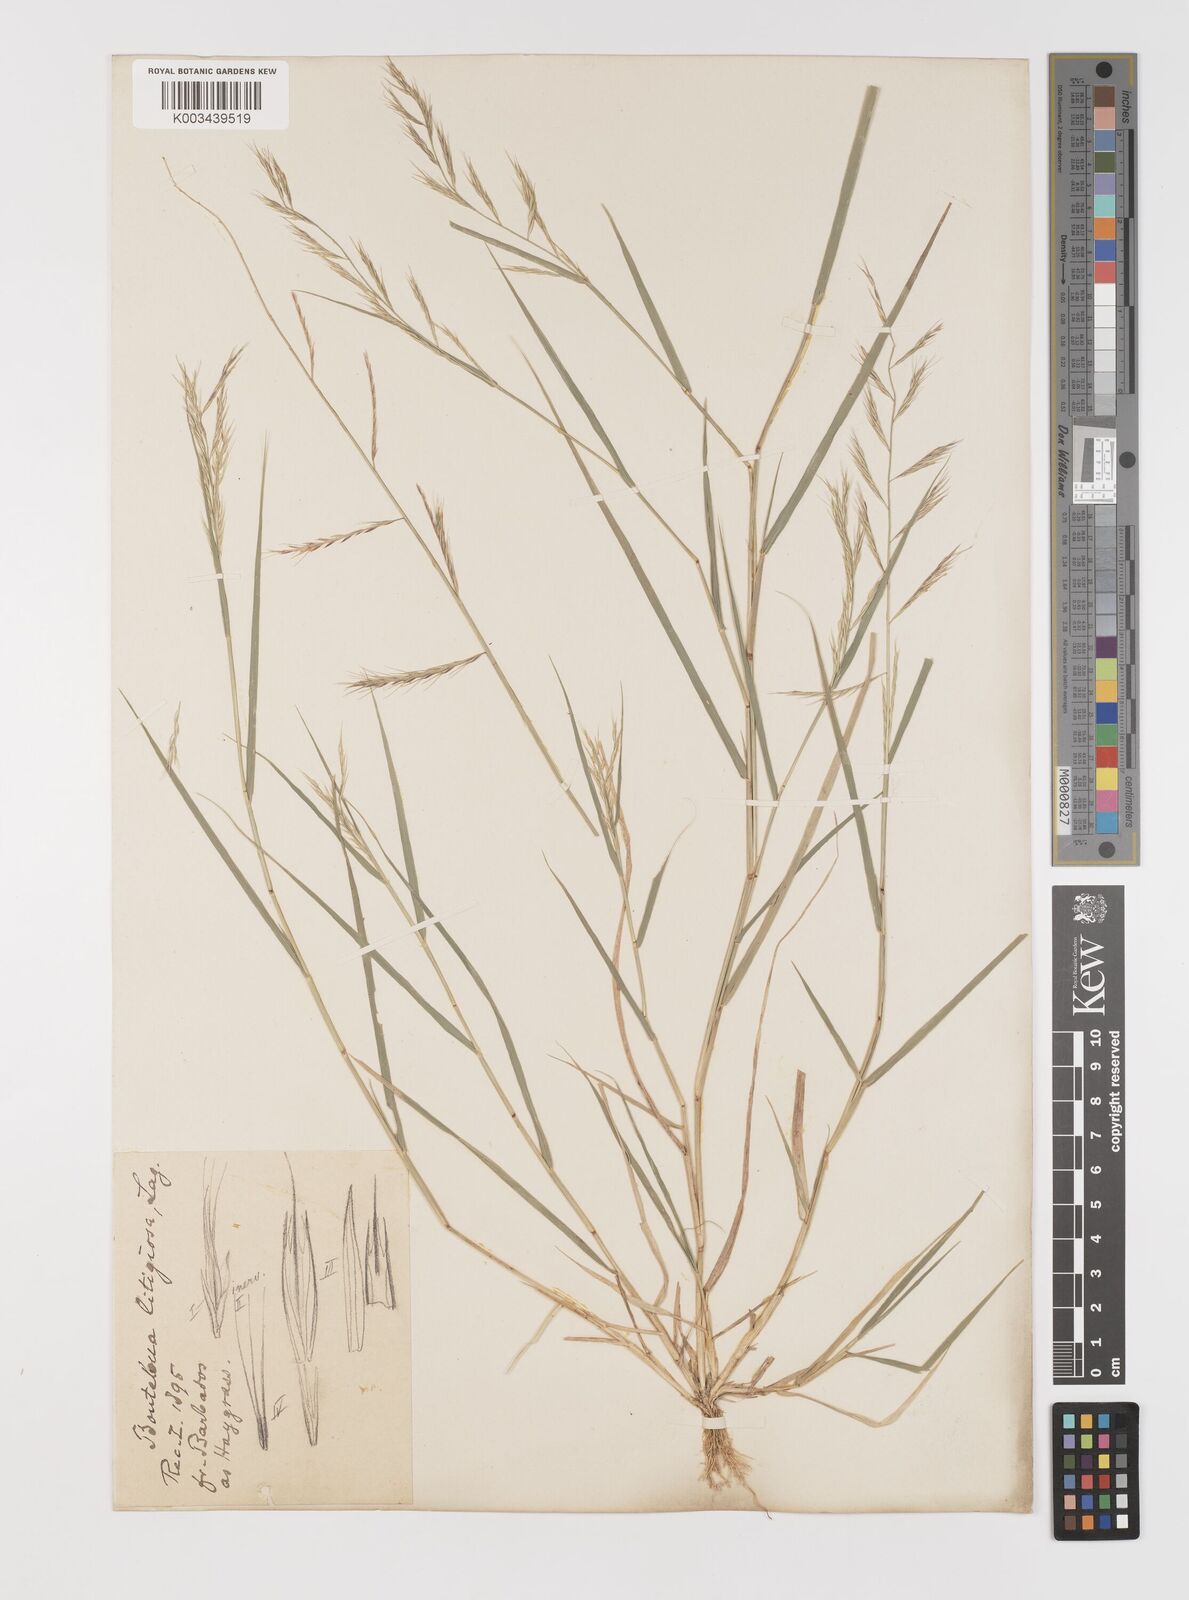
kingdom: Plantae
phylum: Tracheophyta
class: Liliopsida
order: Poales
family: Poaceae
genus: Bouteloua
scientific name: Bouteloua americana
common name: Mule grass
